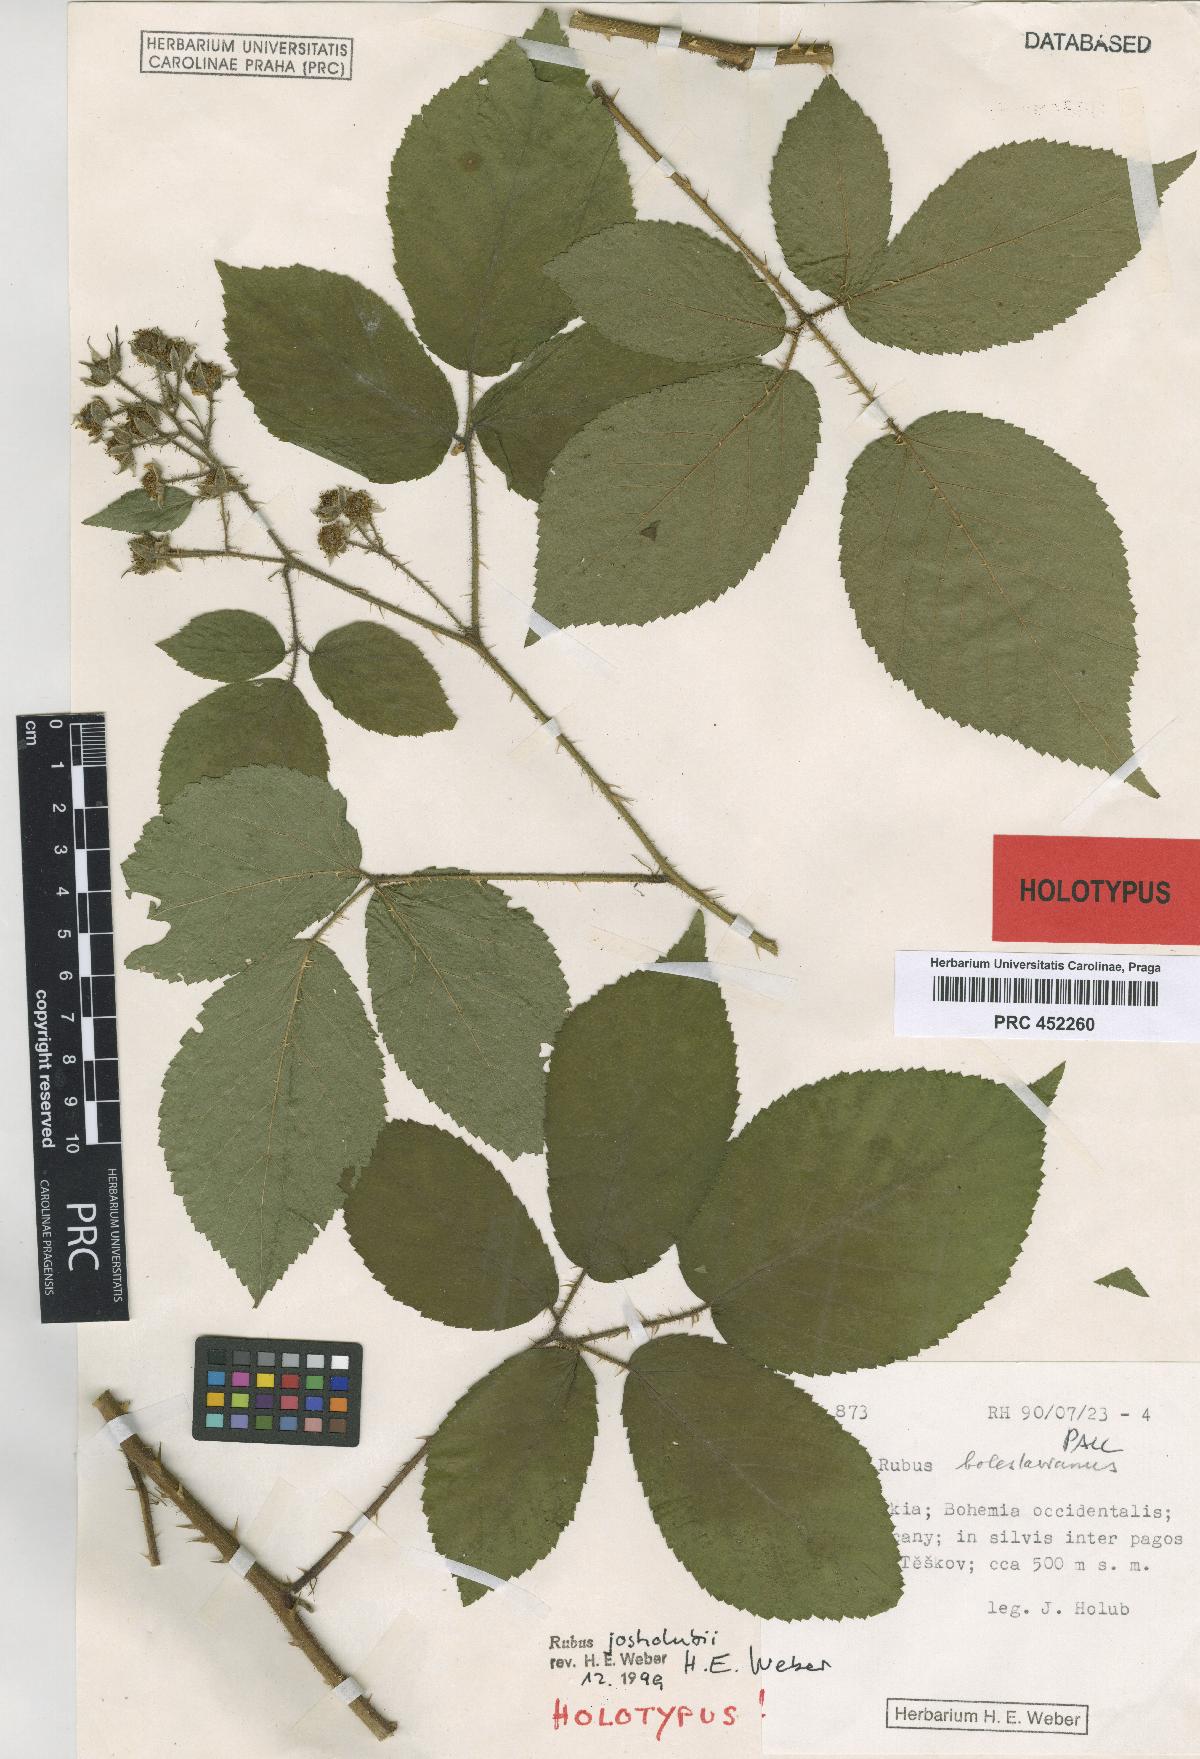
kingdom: Plantae
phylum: Tracheophyta
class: Magnoliopsida
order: Rosales
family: Rosaceae
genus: Rubus
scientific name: Rubus josholubii
